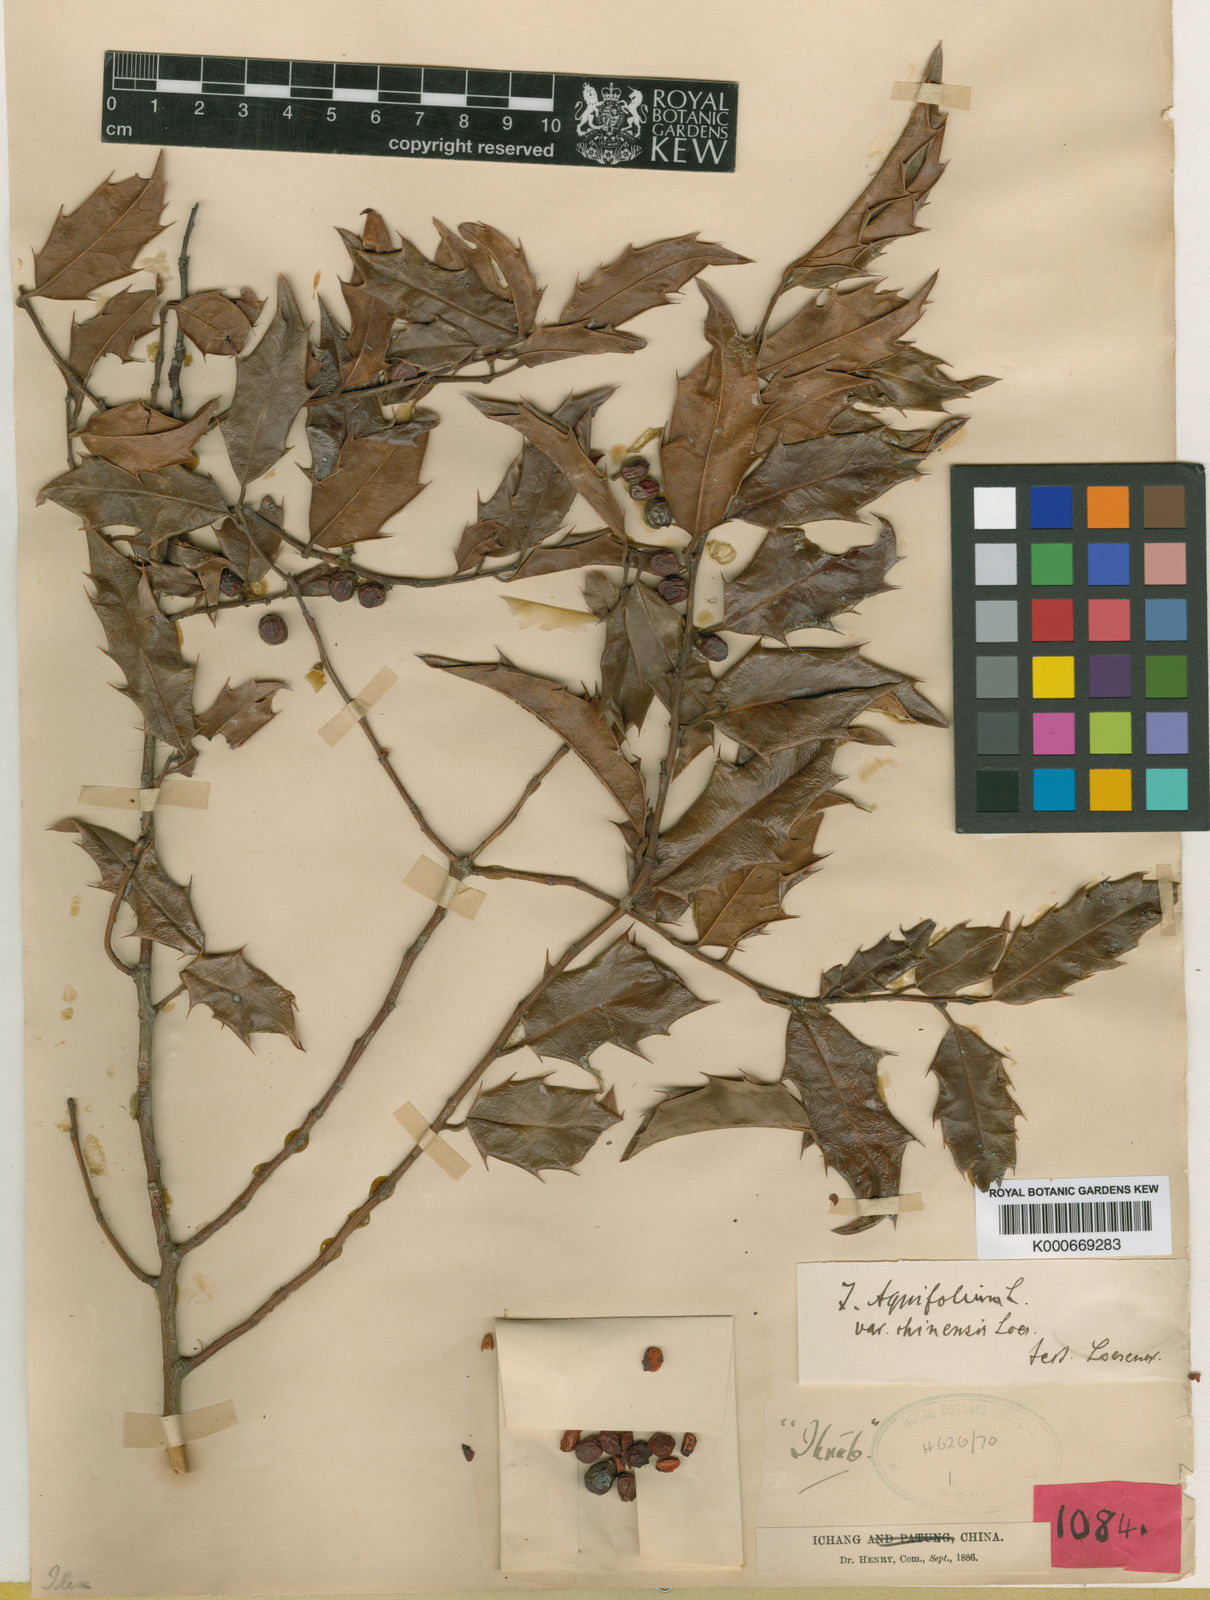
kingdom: Plantae
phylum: Tracheophyta
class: Magnoliopsida
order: Aquifoliales
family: Aquifoliaceae
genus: Ilex
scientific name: Ilex centrochinensis
